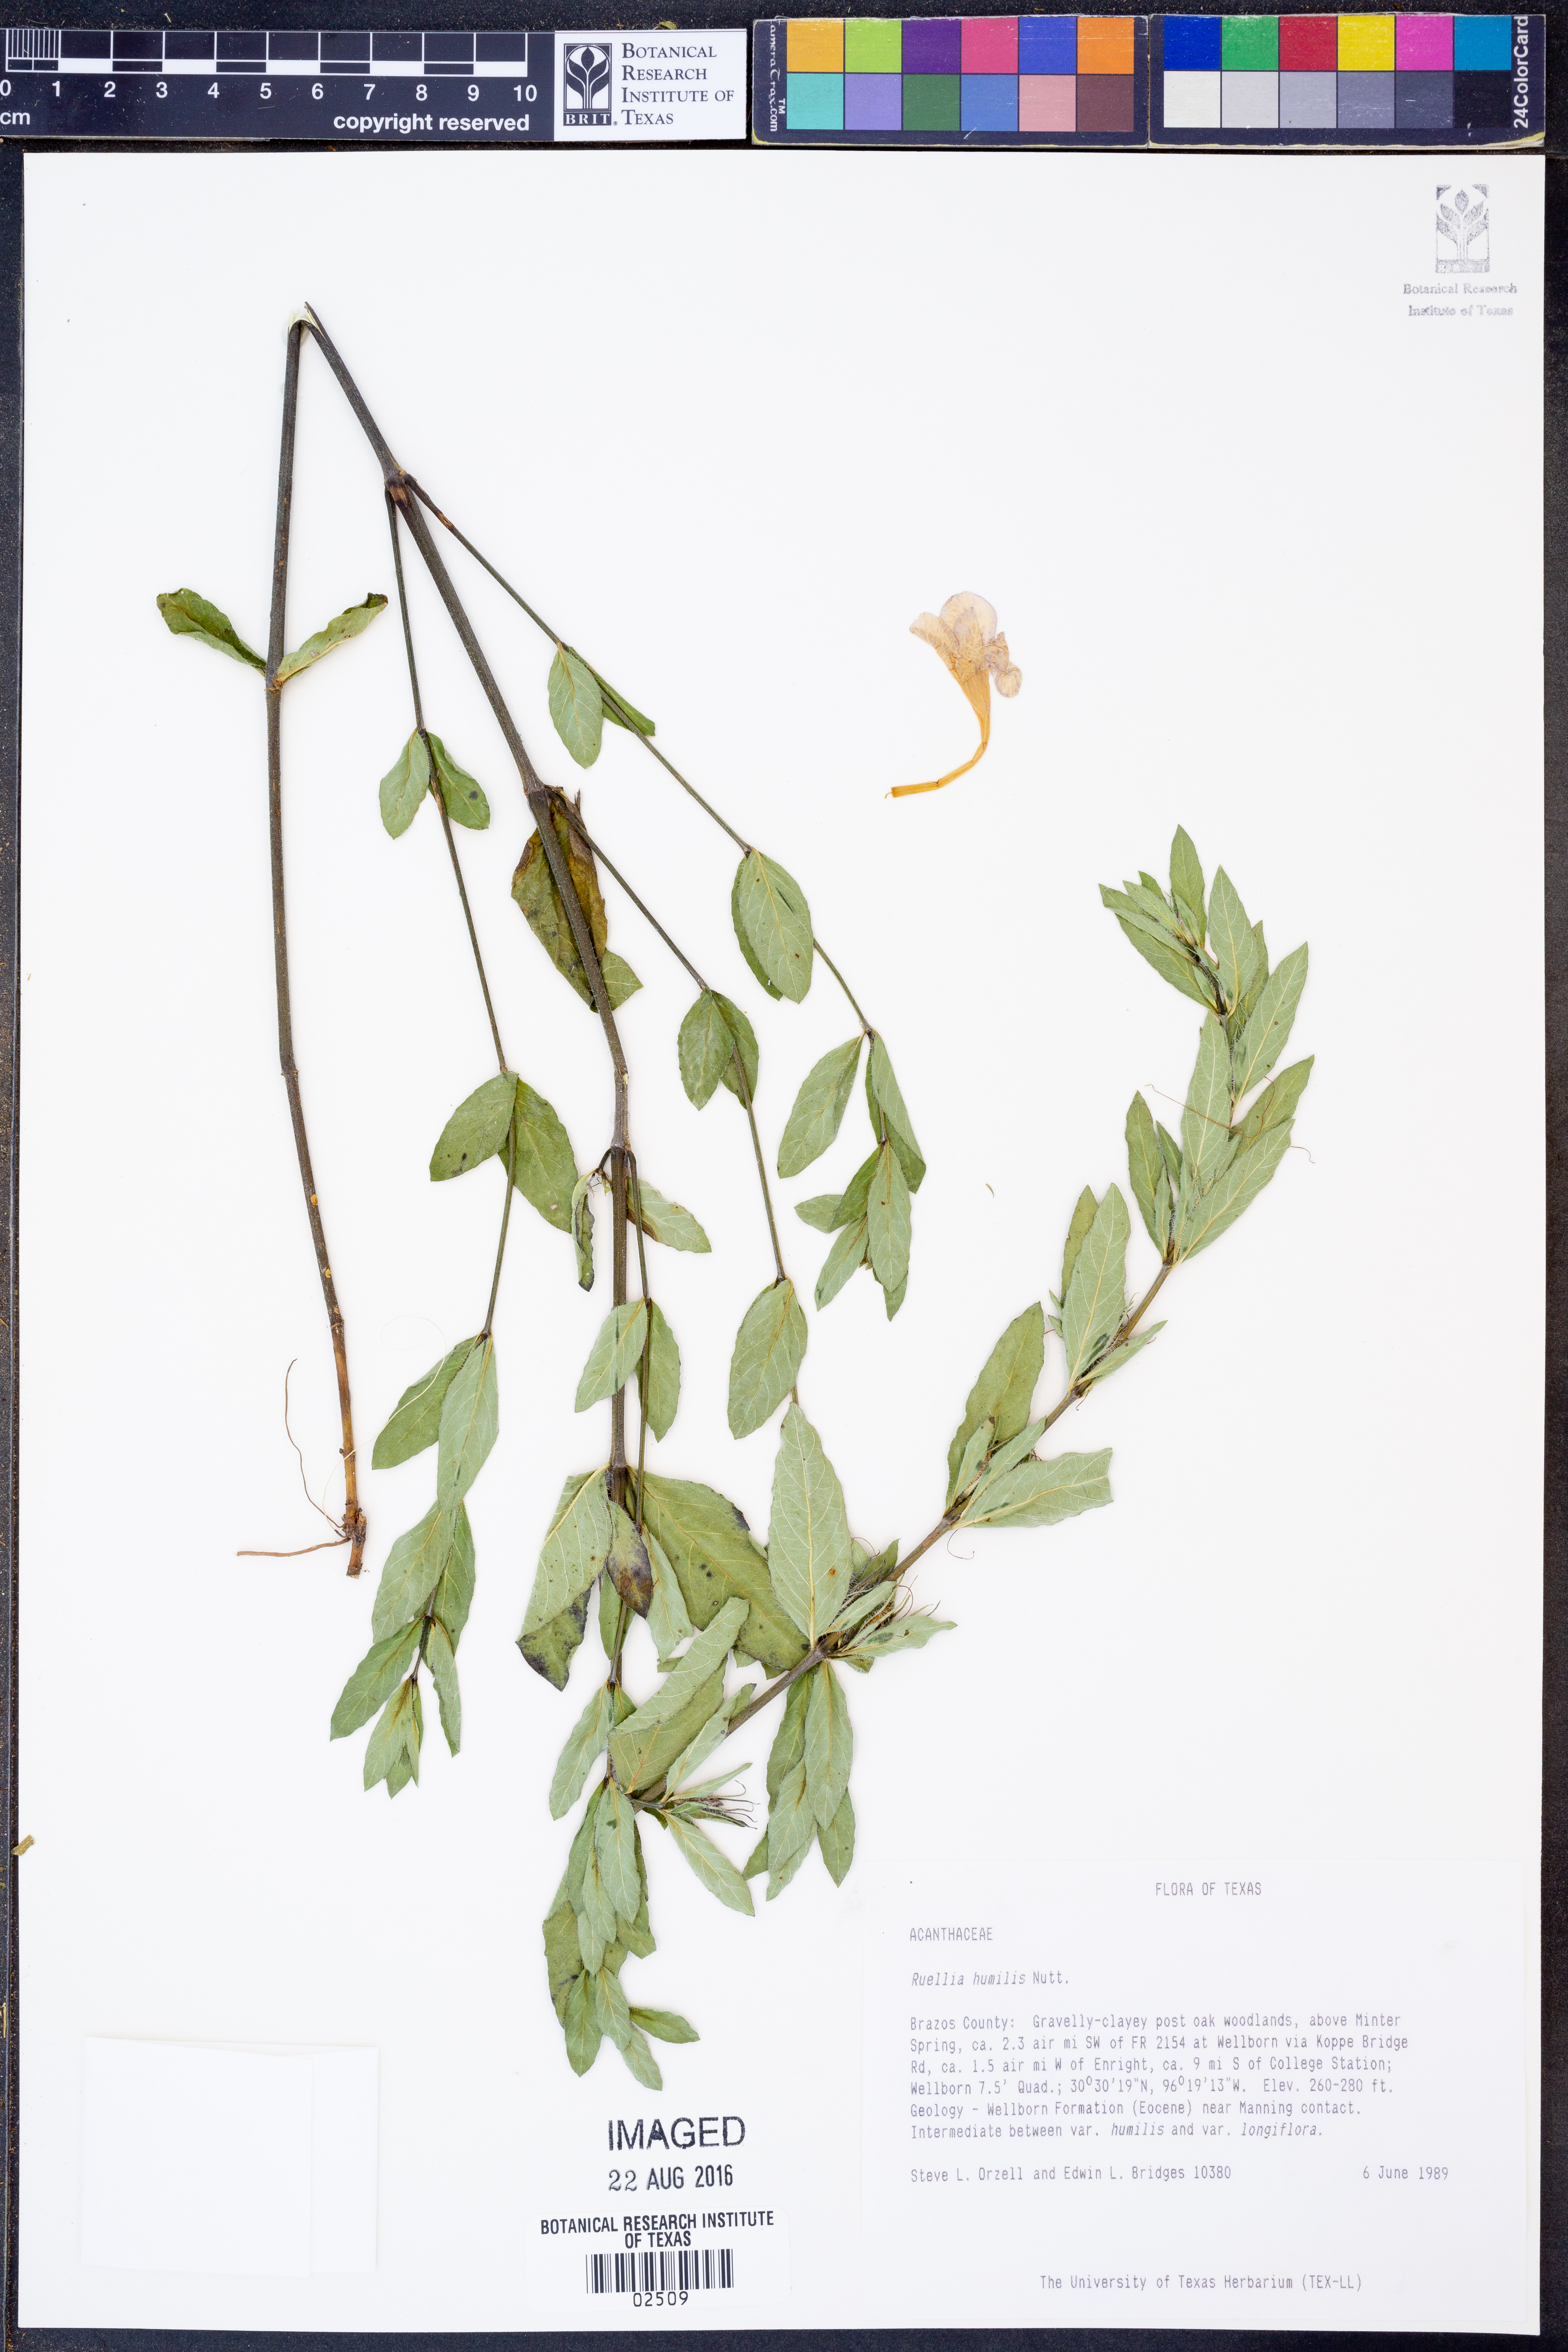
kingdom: Plantae
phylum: Tracheophyta
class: Magnoliopsida
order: Lamiales
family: Acanthaceae
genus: Ruellia
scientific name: Ruellia humilis
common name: Fringe-leaf ruellia
